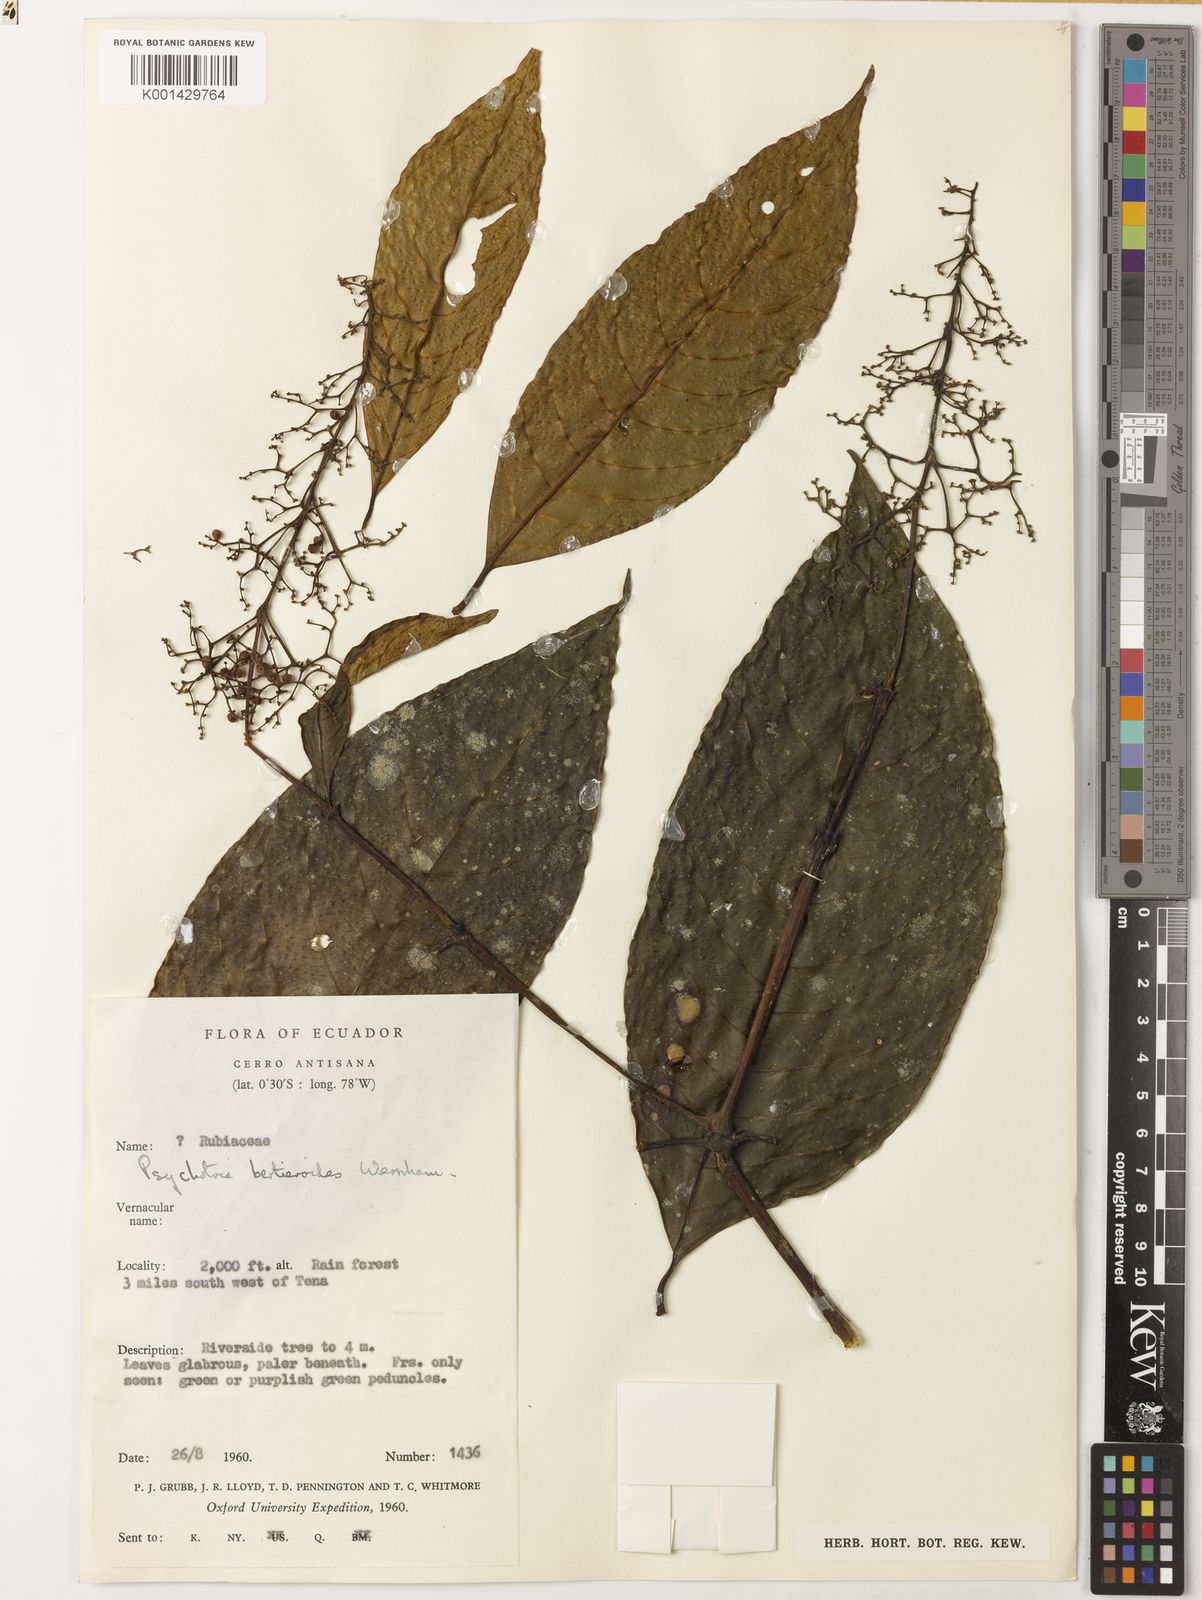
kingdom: Plantae
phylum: Tracheophyta
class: Magnoliopsida
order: Gentianales
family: Rubiaceae
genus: Palicourea
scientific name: Palicourea bertieroides
